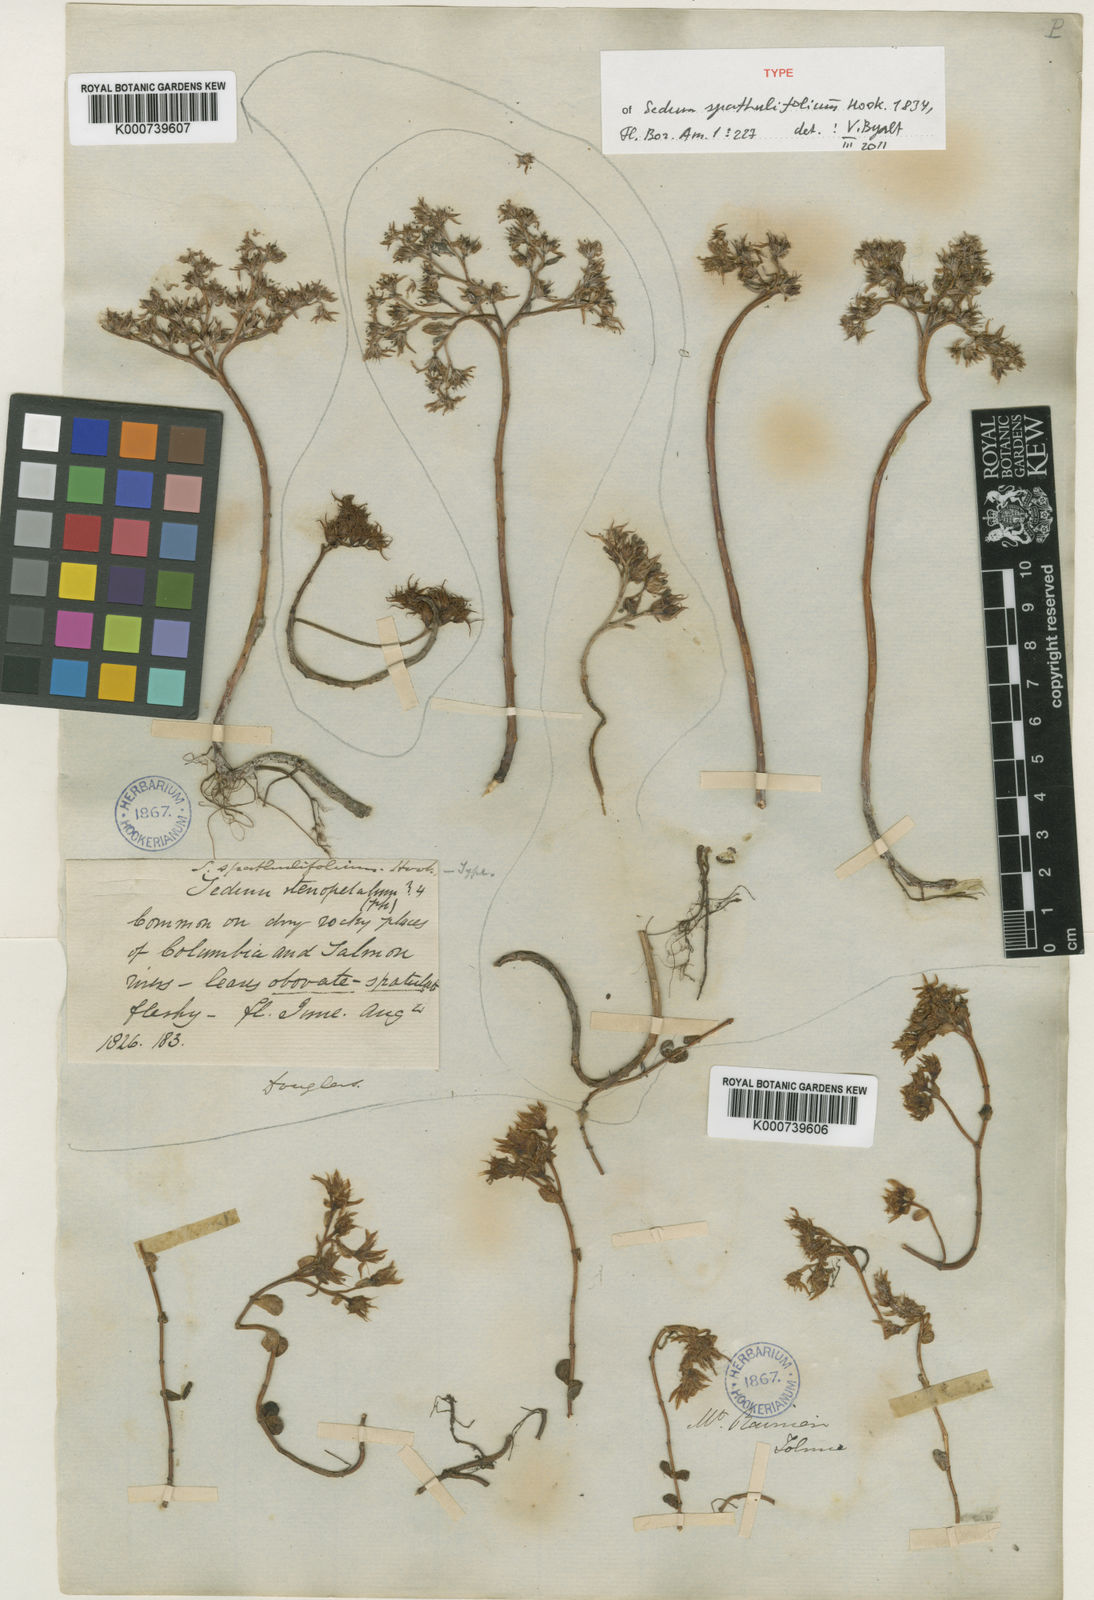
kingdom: Plantae
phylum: Tracheophyta
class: Magnoliopsida
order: Saxifragales
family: Crassulaceae
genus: Sedum
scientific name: Sedum spathulifolium
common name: Colorado stonecrop
